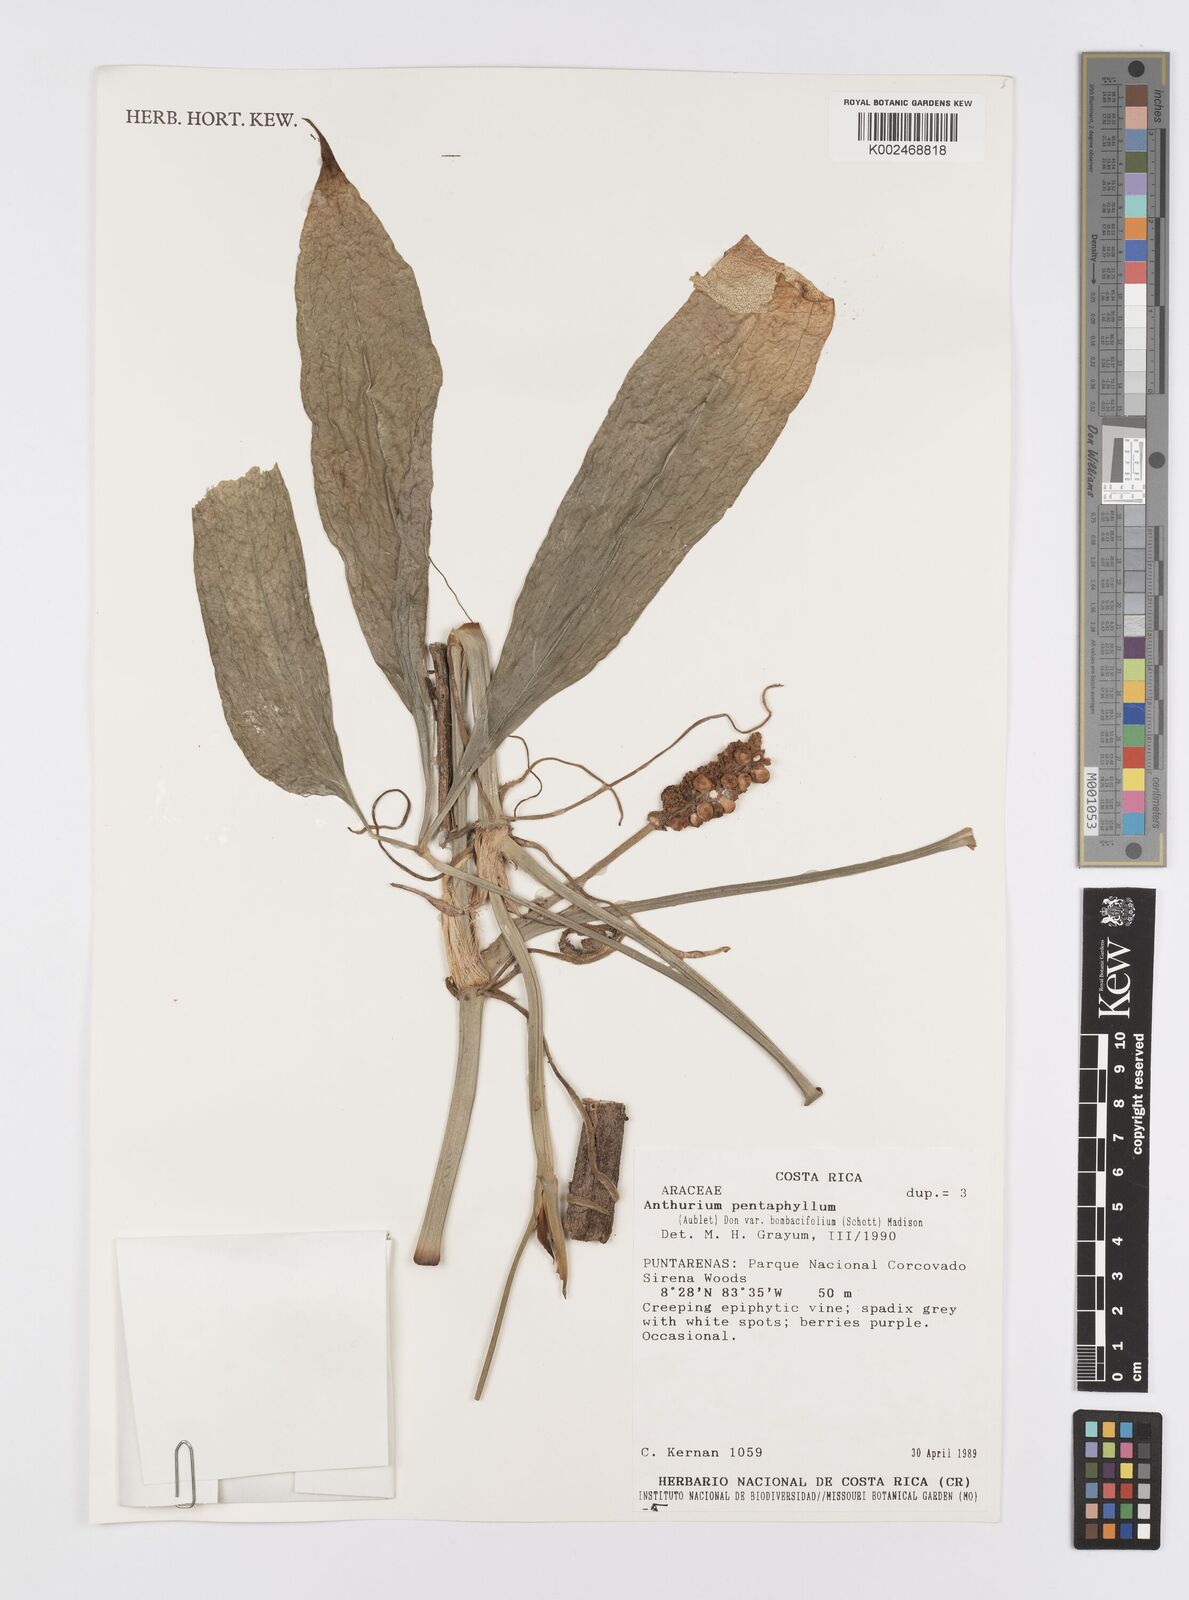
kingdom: Plantae
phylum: Tracheophyta
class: Liliopsida
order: Alismatales
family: Araceae
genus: Anthurium
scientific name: Anthurium pentaphyllum
